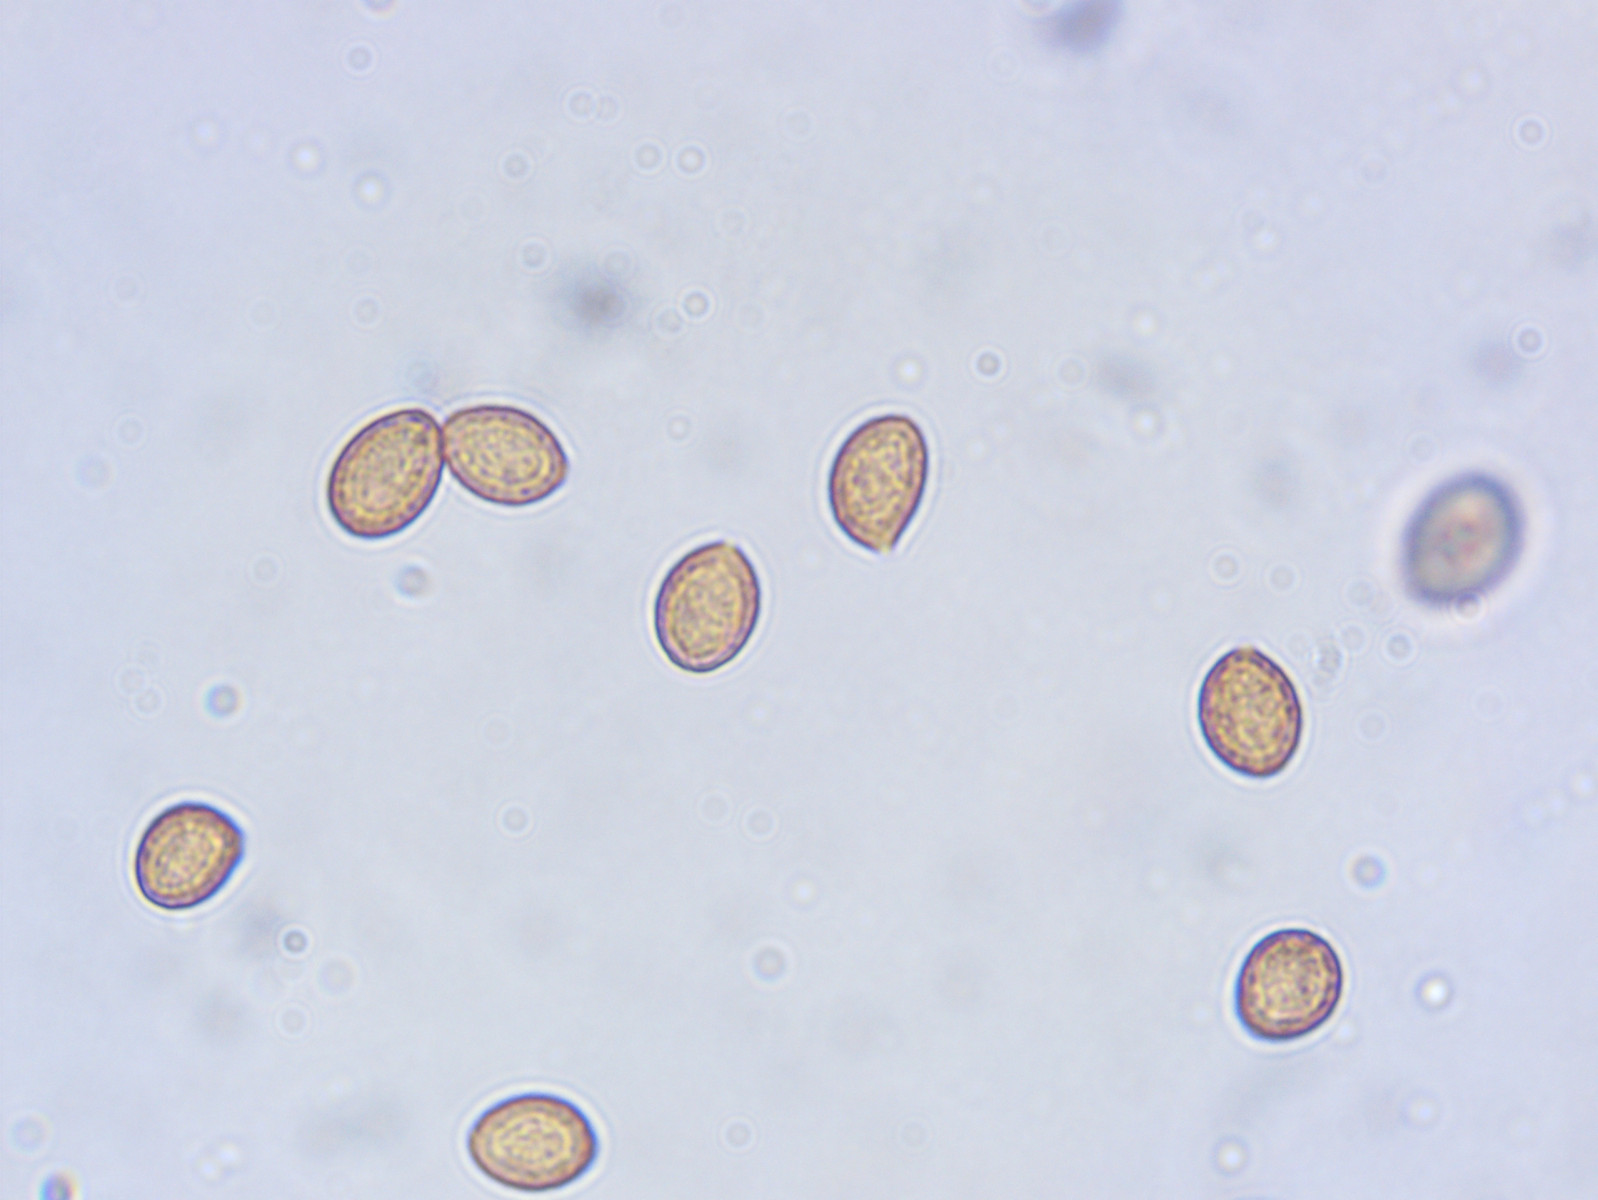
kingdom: Fungi
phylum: Basidiomycota
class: Agaricomycetes
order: Agaricales
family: Cortinariaceae
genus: Cortinarius
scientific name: Cortinarius pelerinii
